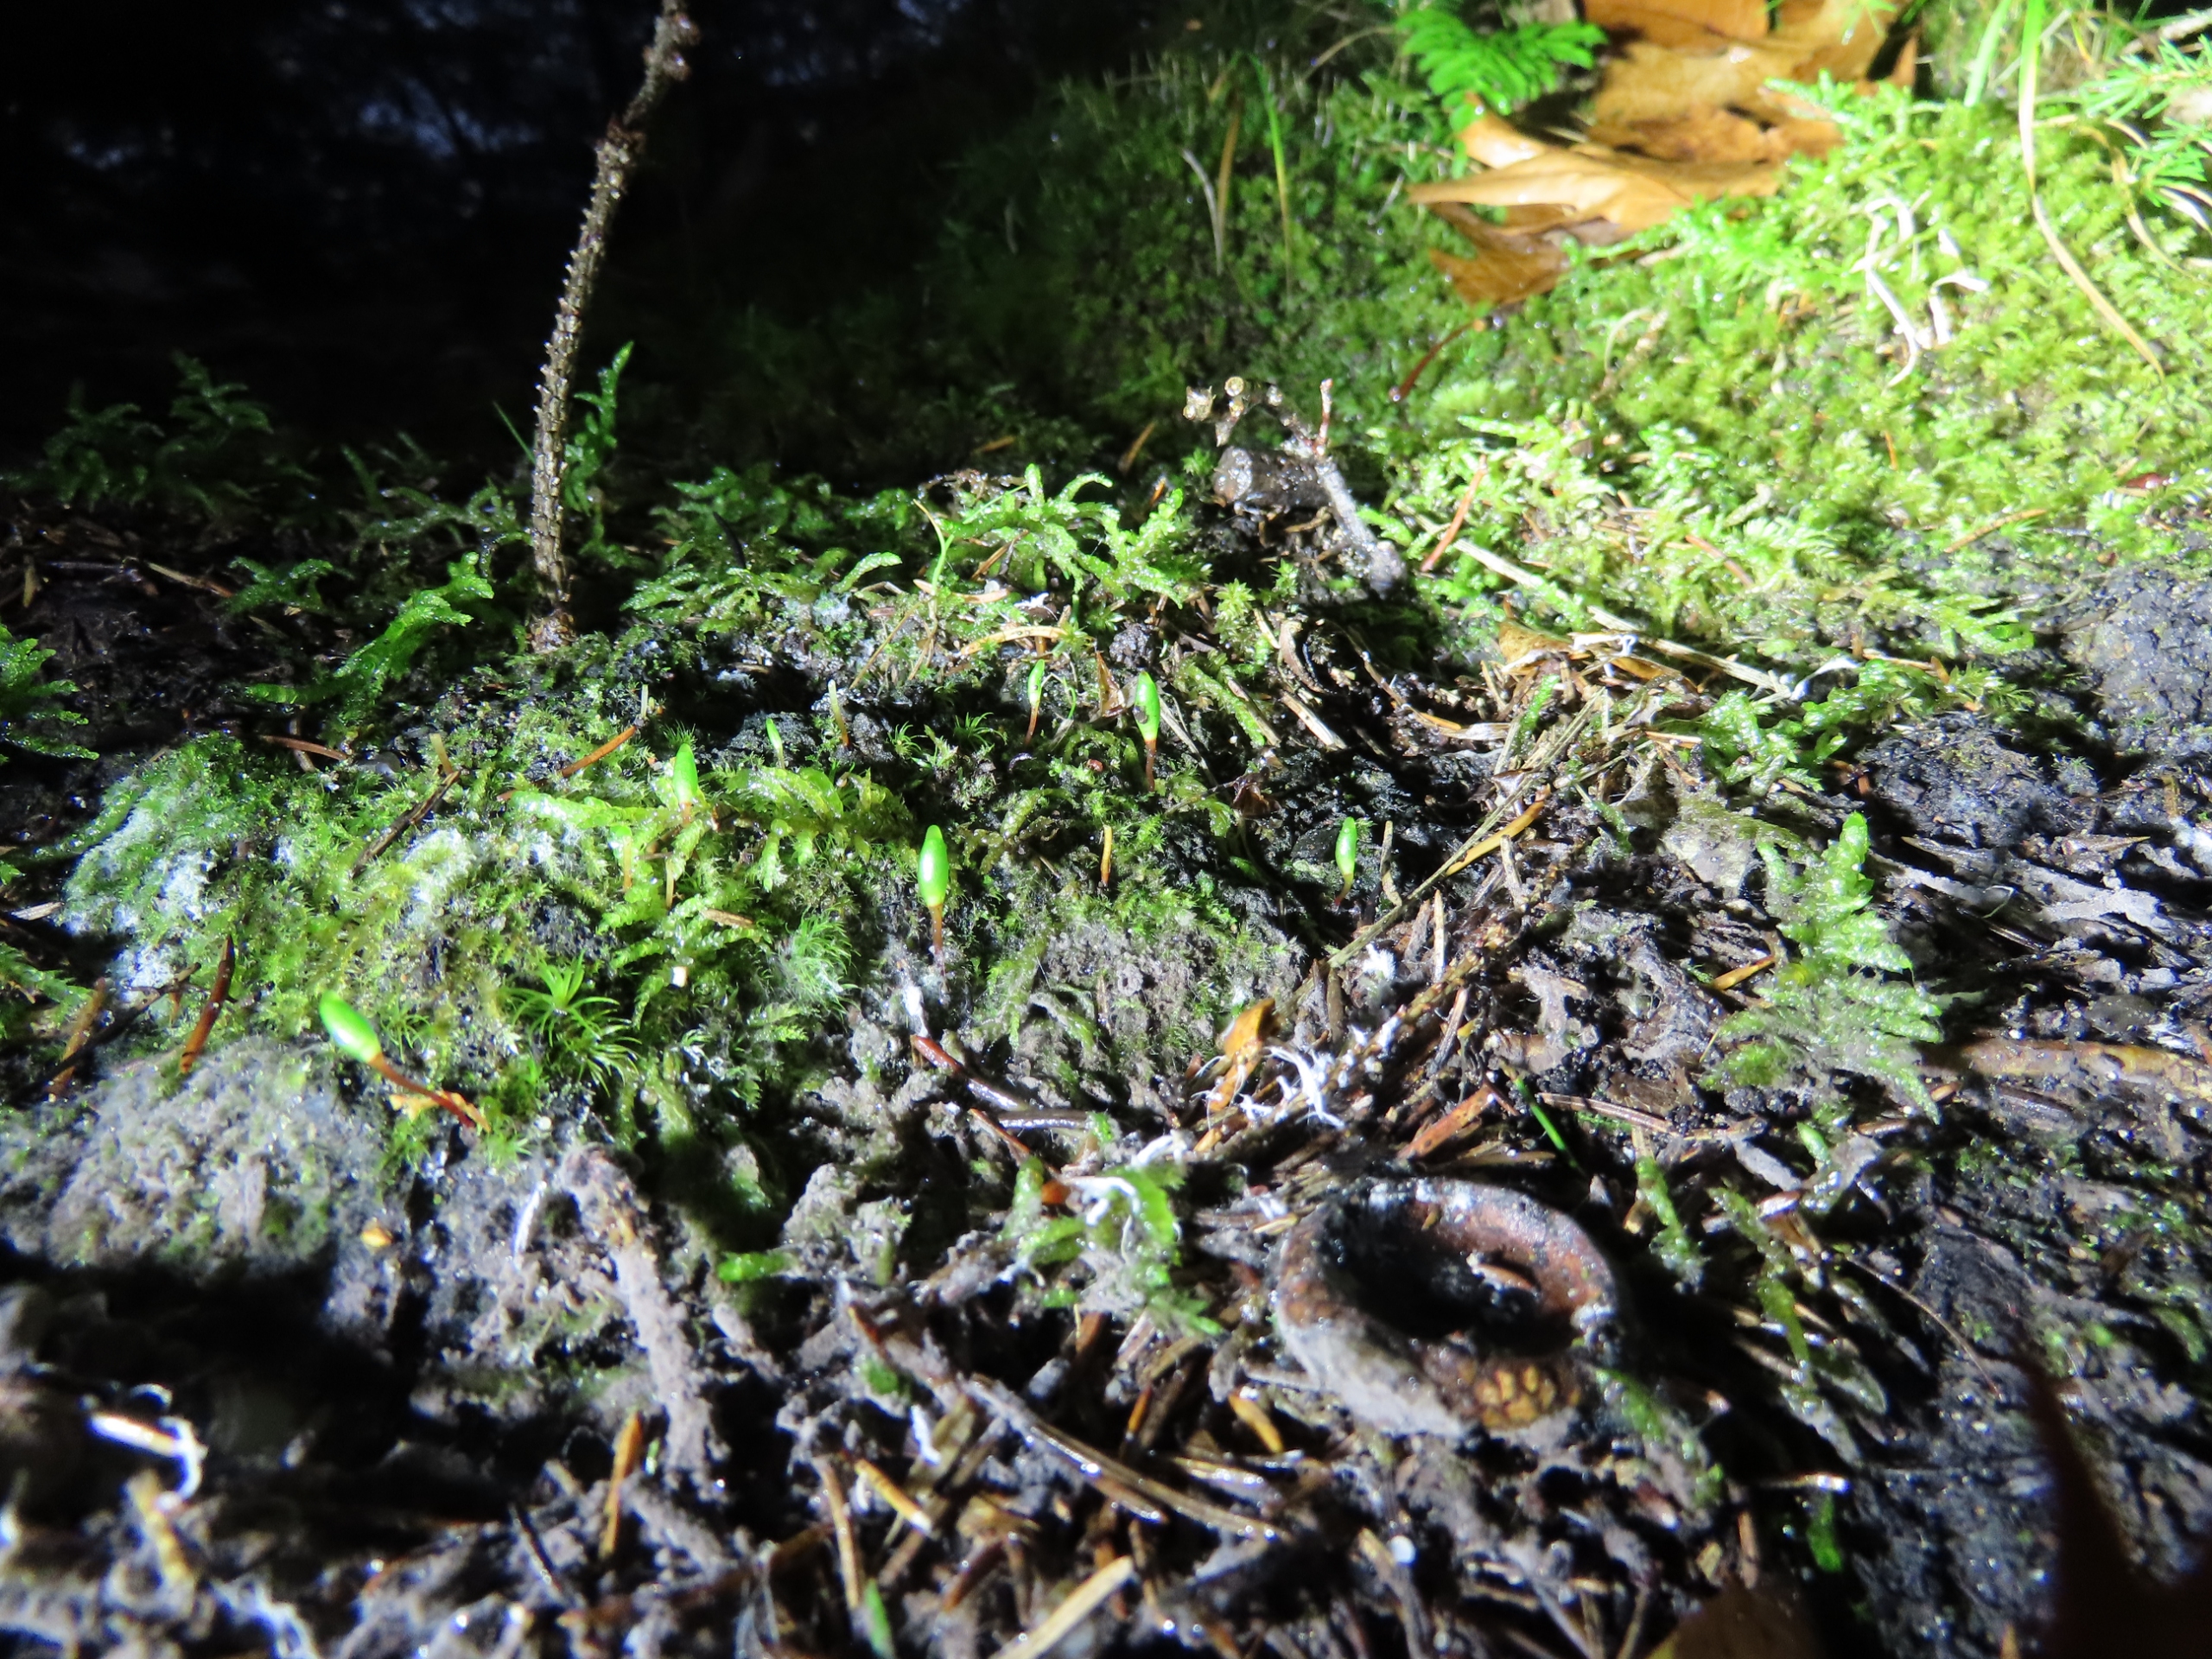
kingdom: Plantae
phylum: Bryophyta
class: Bryopsida
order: Buxbaumiales
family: Buxbaumiaceae
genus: Buxbaumia
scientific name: Buxbaumia viridis
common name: Grøn buxbaumia
